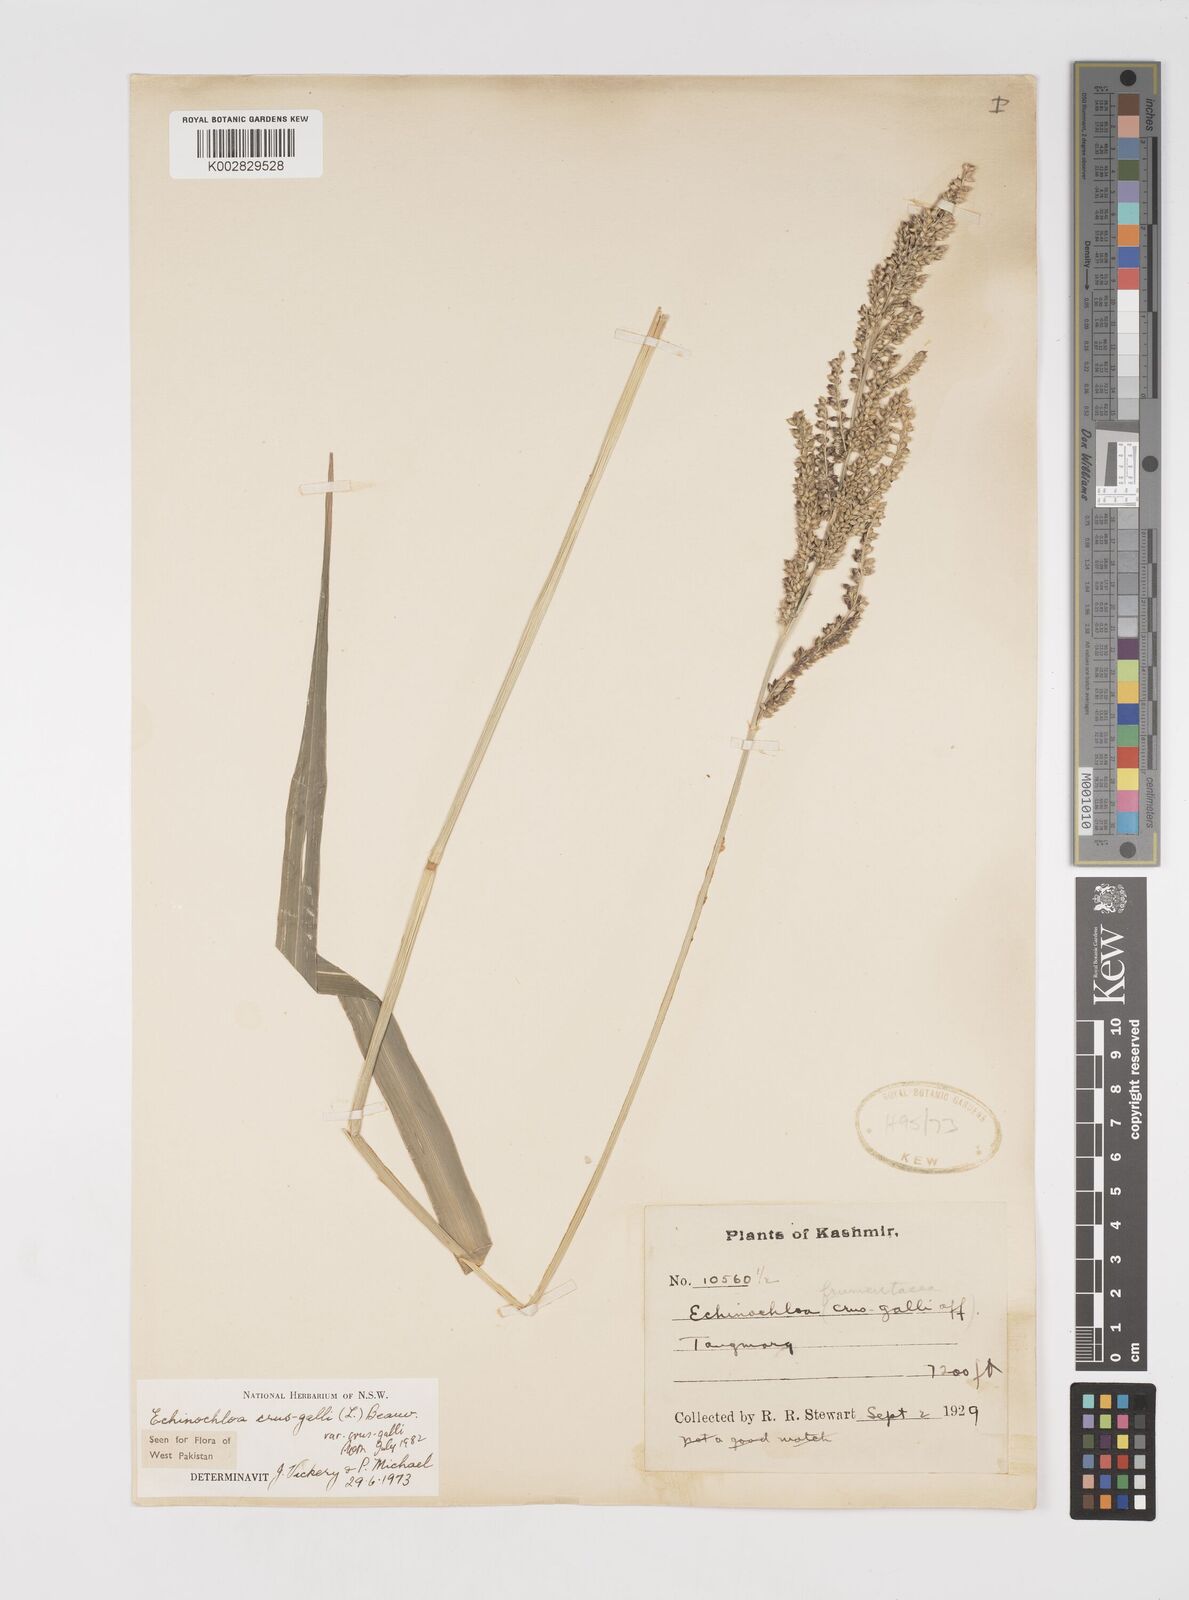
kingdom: Plantae
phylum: Tracheophyta
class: Liliopsida
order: Poales
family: Poaceae
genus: Echinochloa
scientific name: Echinochloa crus-galli
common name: Cockspur
